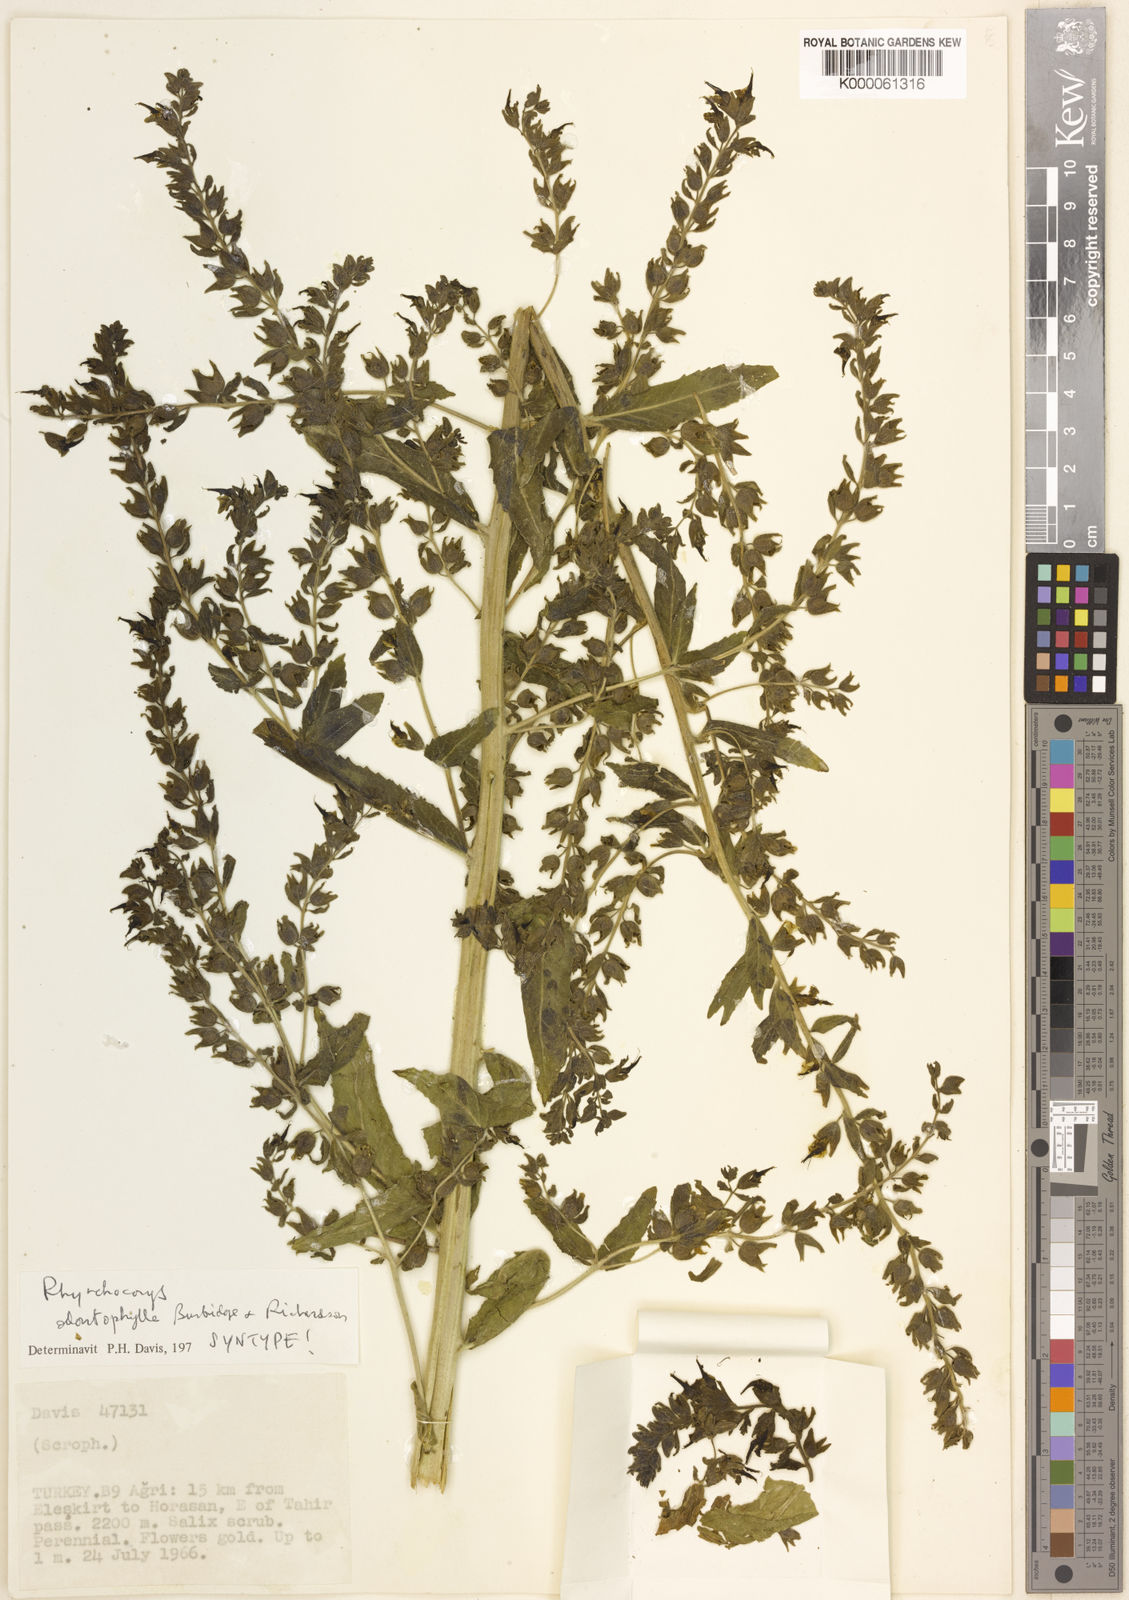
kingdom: Plantae
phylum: Tracheophyta
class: Magnoliopsida
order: Lamiales
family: Orobanchaceae
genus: Rhynchocorys
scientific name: Rhynchocorys odontophylla
